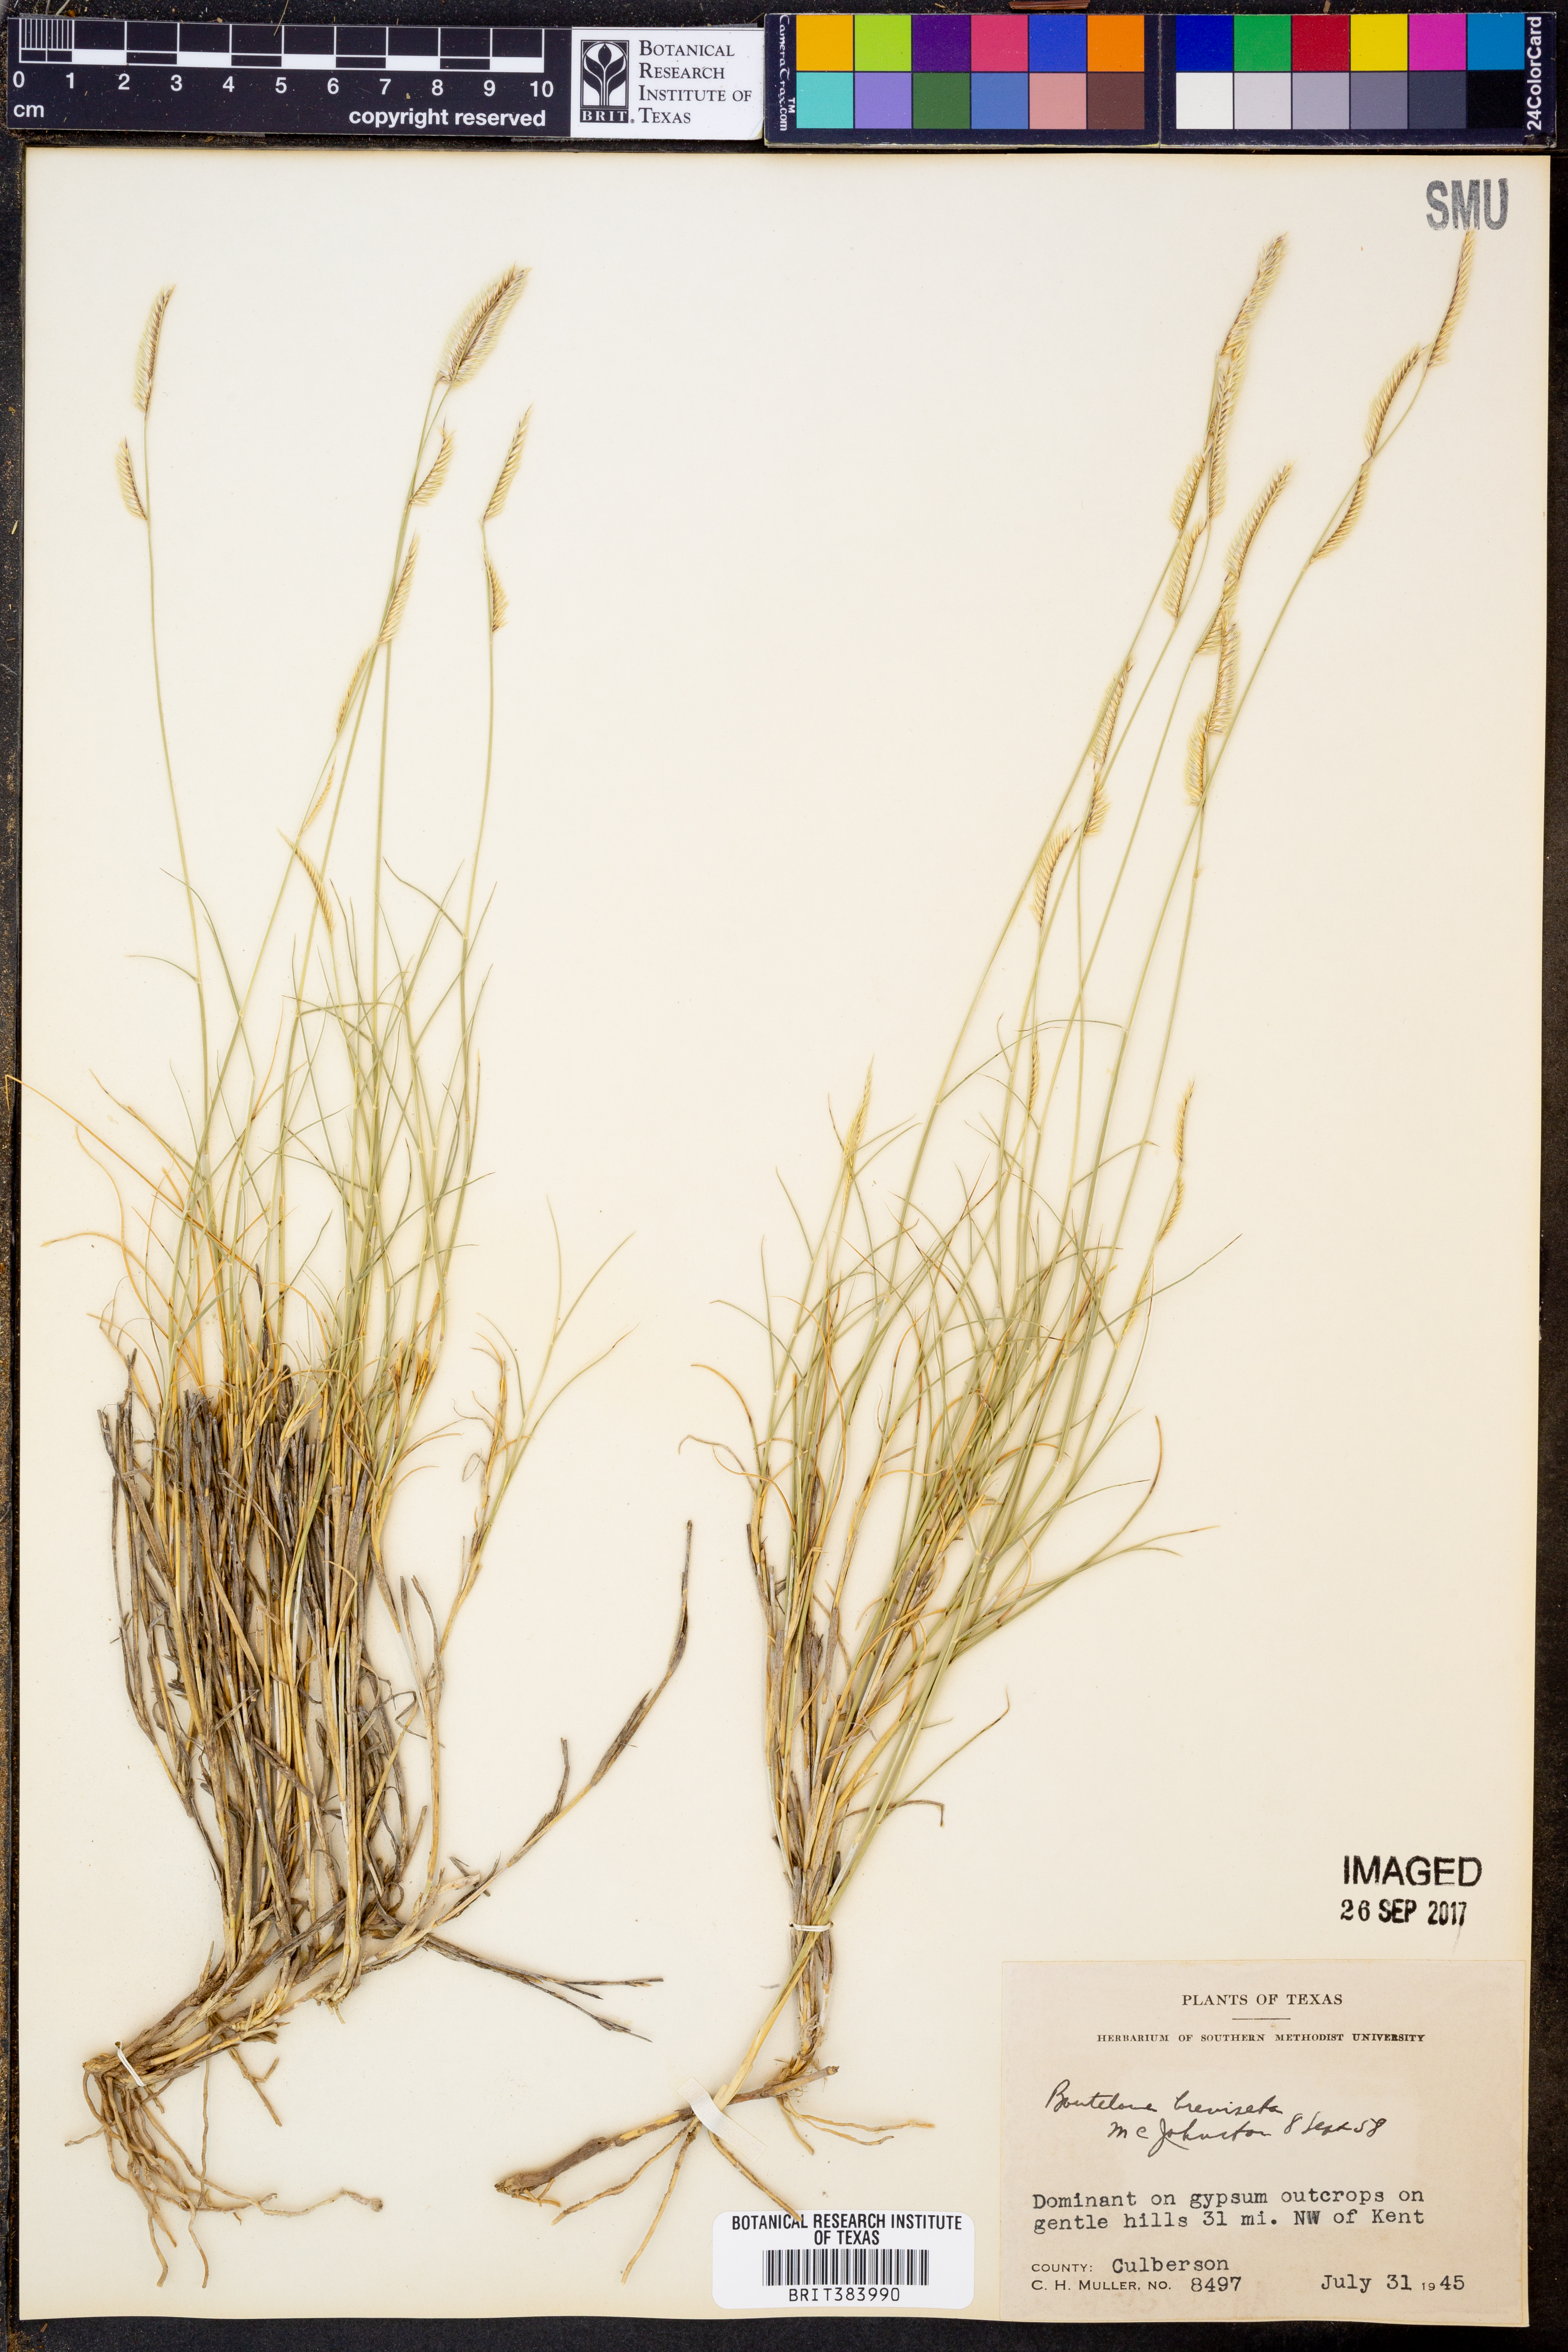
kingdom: Plantae
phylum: Tracheophyta
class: Liliopsida
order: Poales
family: Poaceae
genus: Bouteloua
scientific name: Bouteloua breviseta
